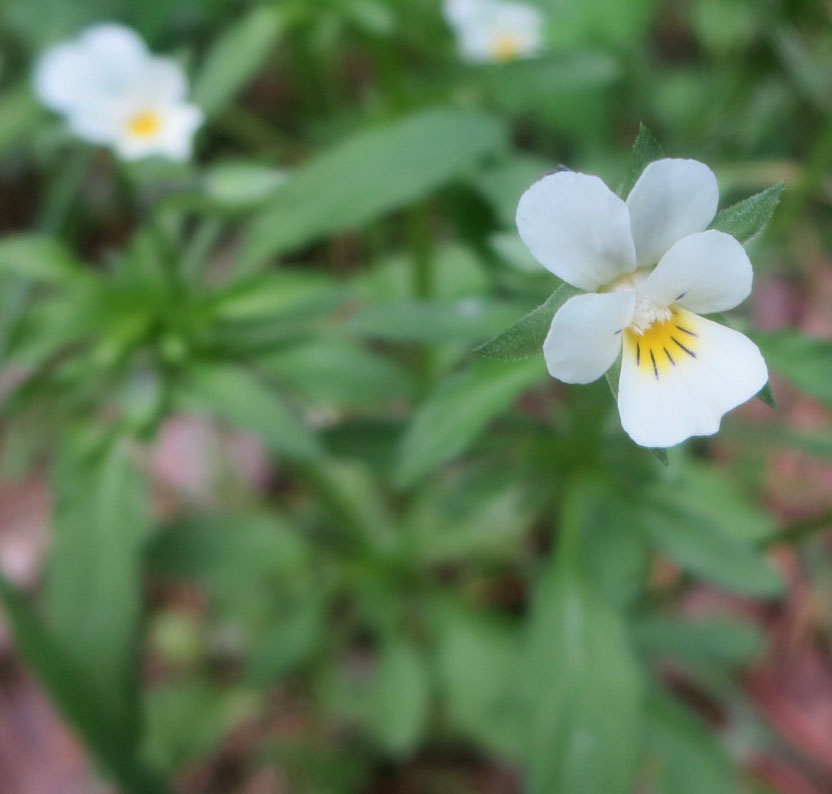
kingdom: Plantae
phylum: Tracheophyta
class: Magnoliopsida
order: Malpighiales
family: Violaceae
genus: Viola
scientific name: Viola arvensis
